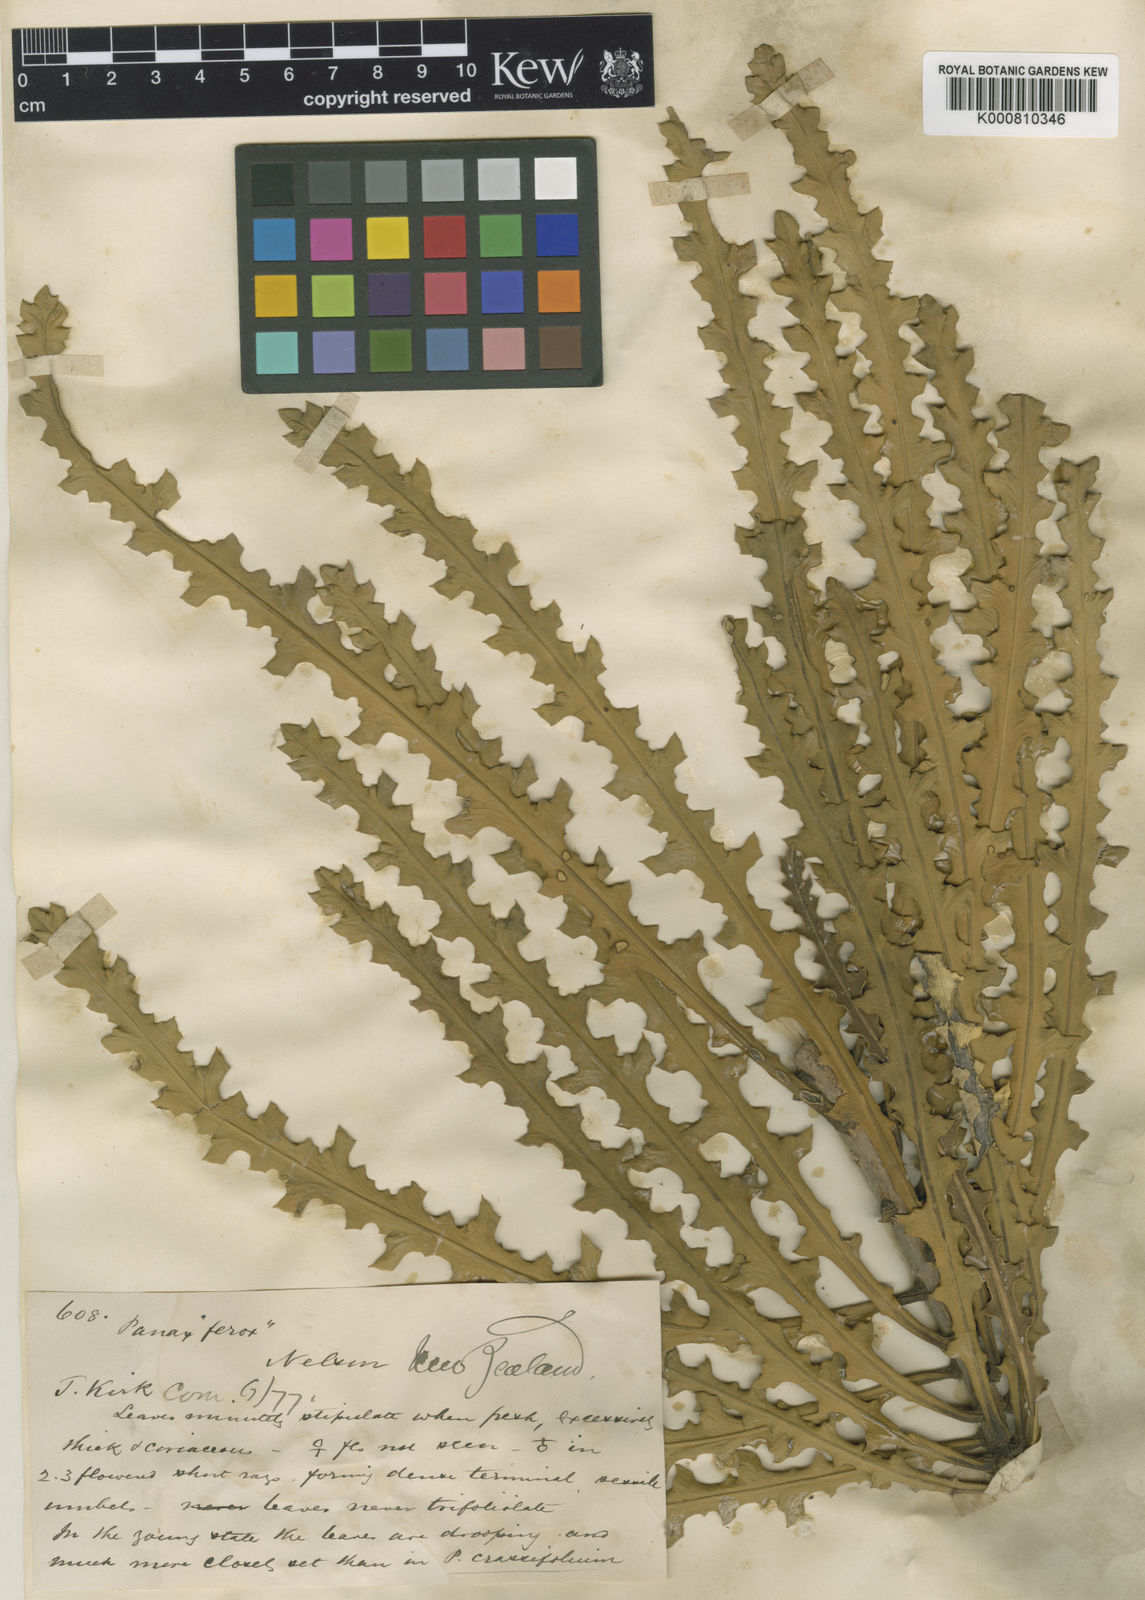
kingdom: Plantae
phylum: Tracheophyta
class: Magnoliopsida
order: Apiales
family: Araliaceae
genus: Pseudopanax
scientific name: Pseudopanax ferox
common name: Fierce lancewood
